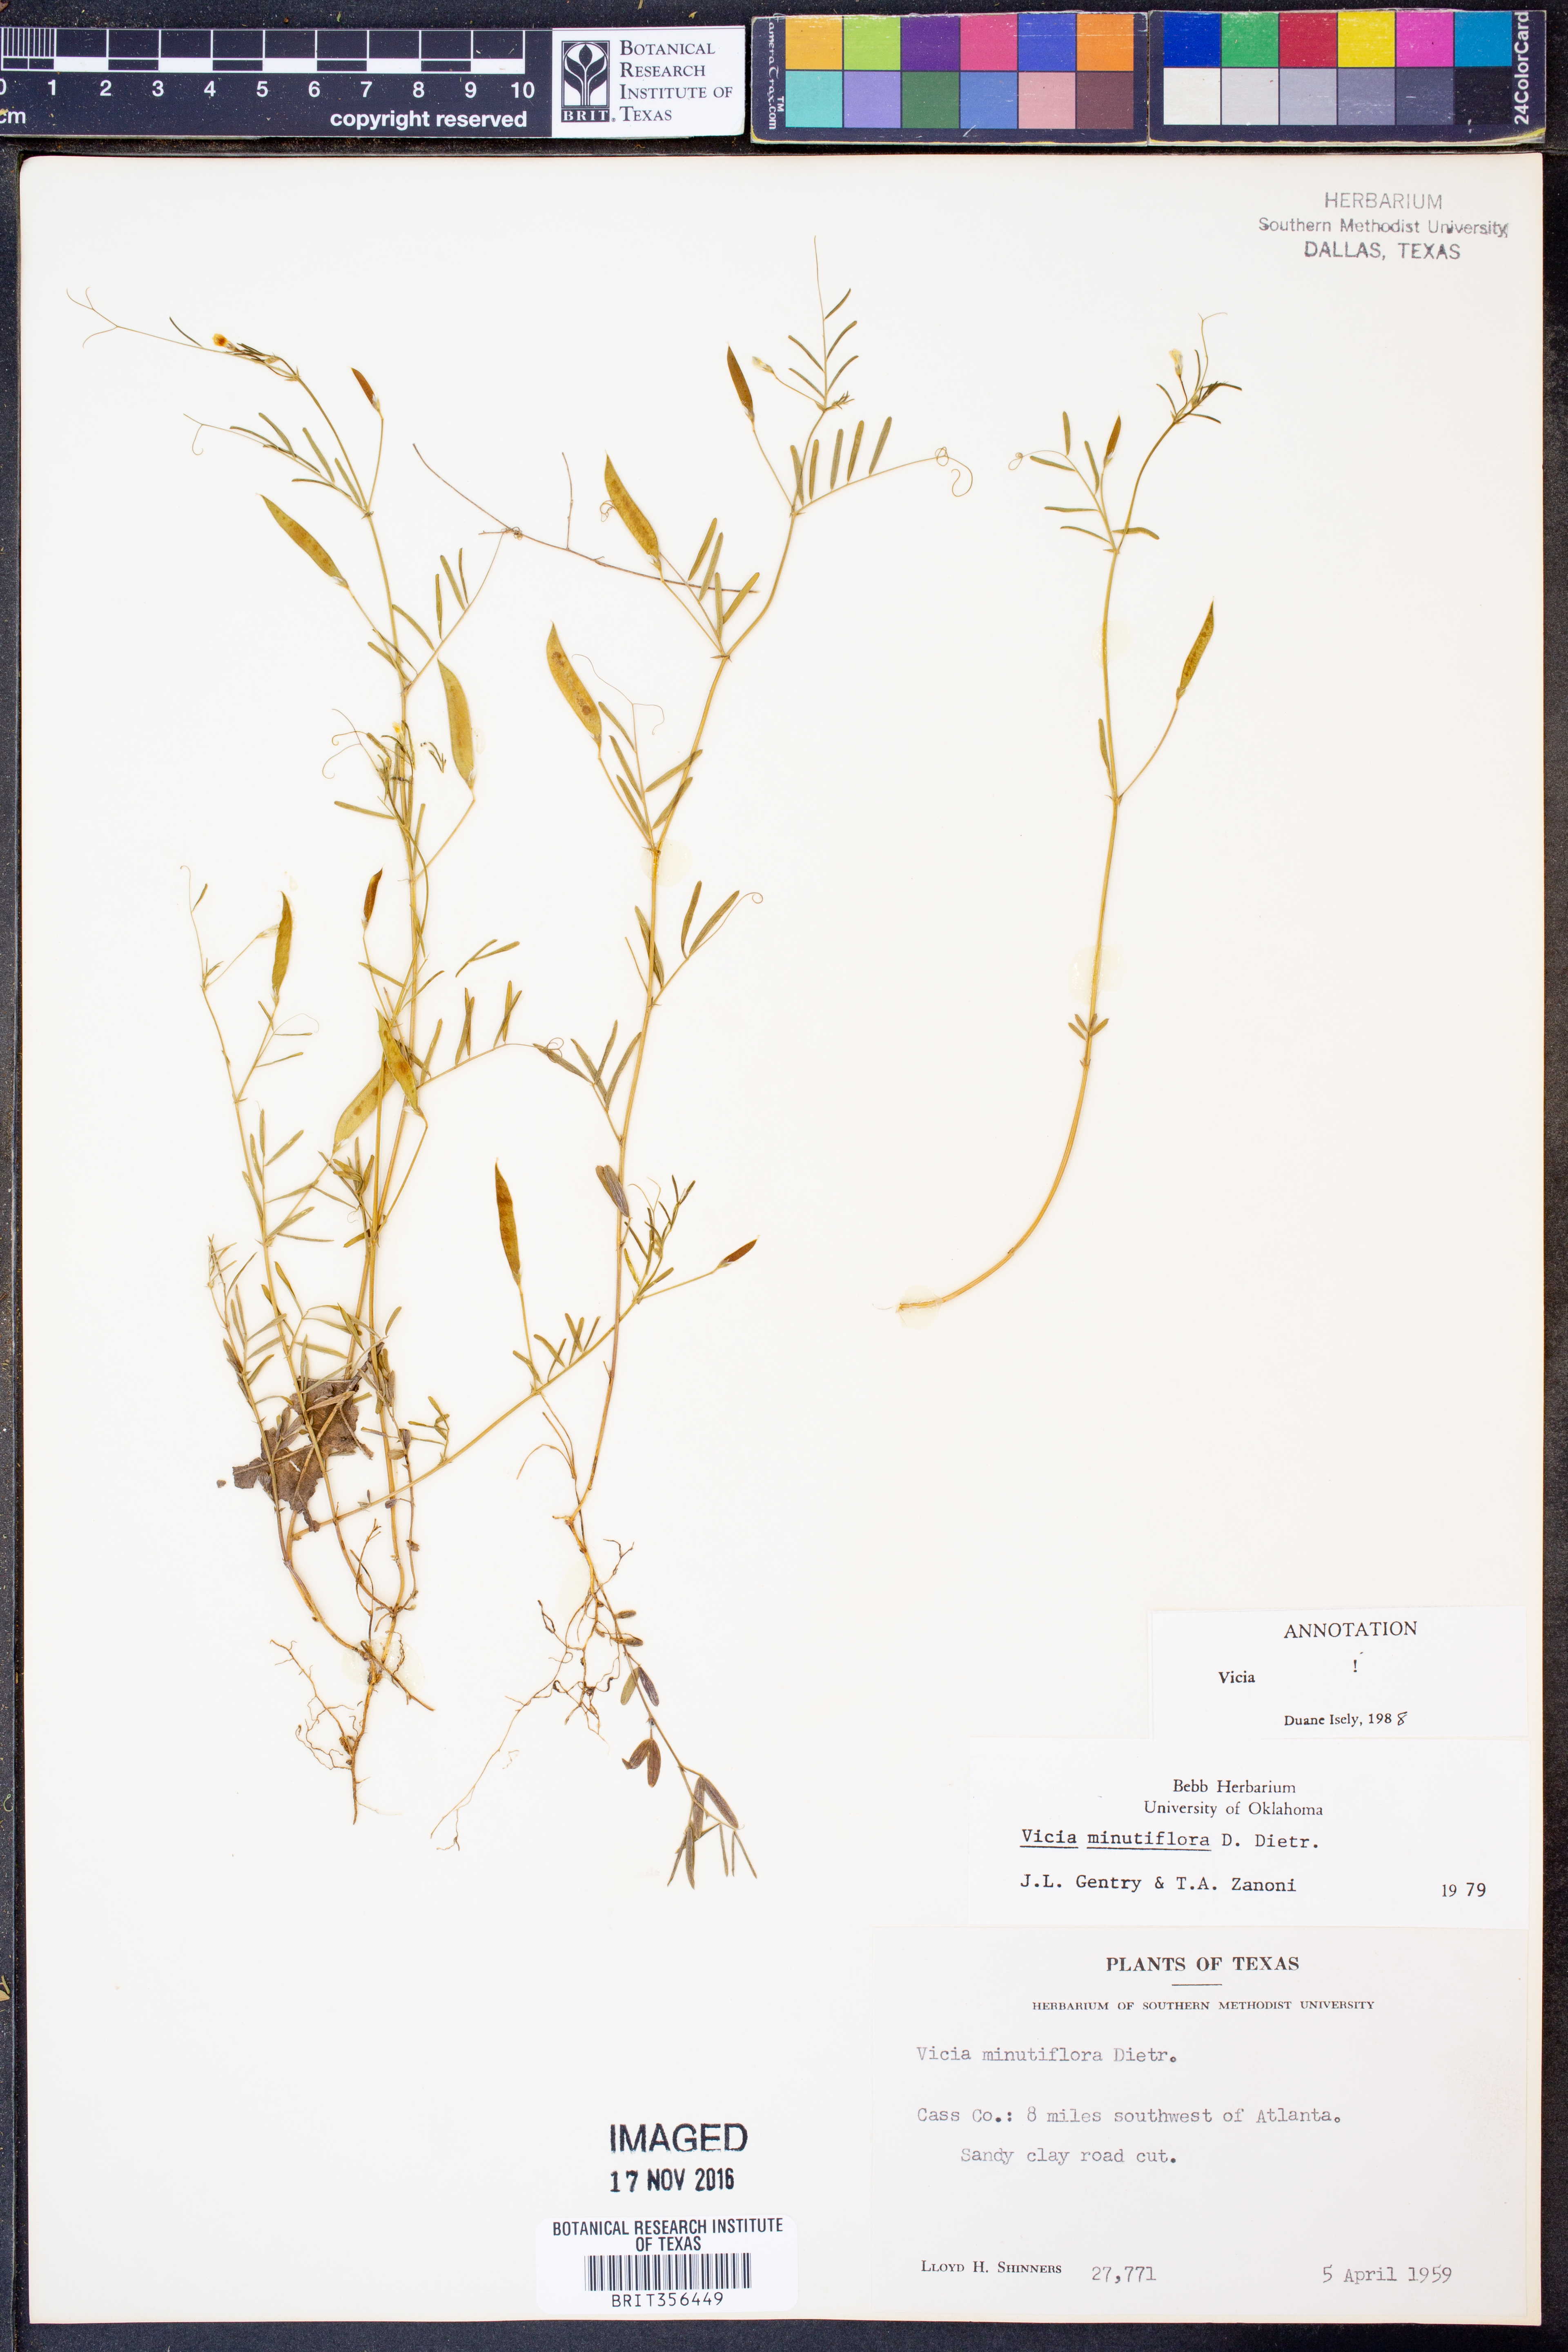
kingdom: Plantae
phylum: Tracheophyta
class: Magnoliopsida
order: Fabales
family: Fabaceae
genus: Vicia
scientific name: Vicia minutiflora
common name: Pygmy-flower vetch
